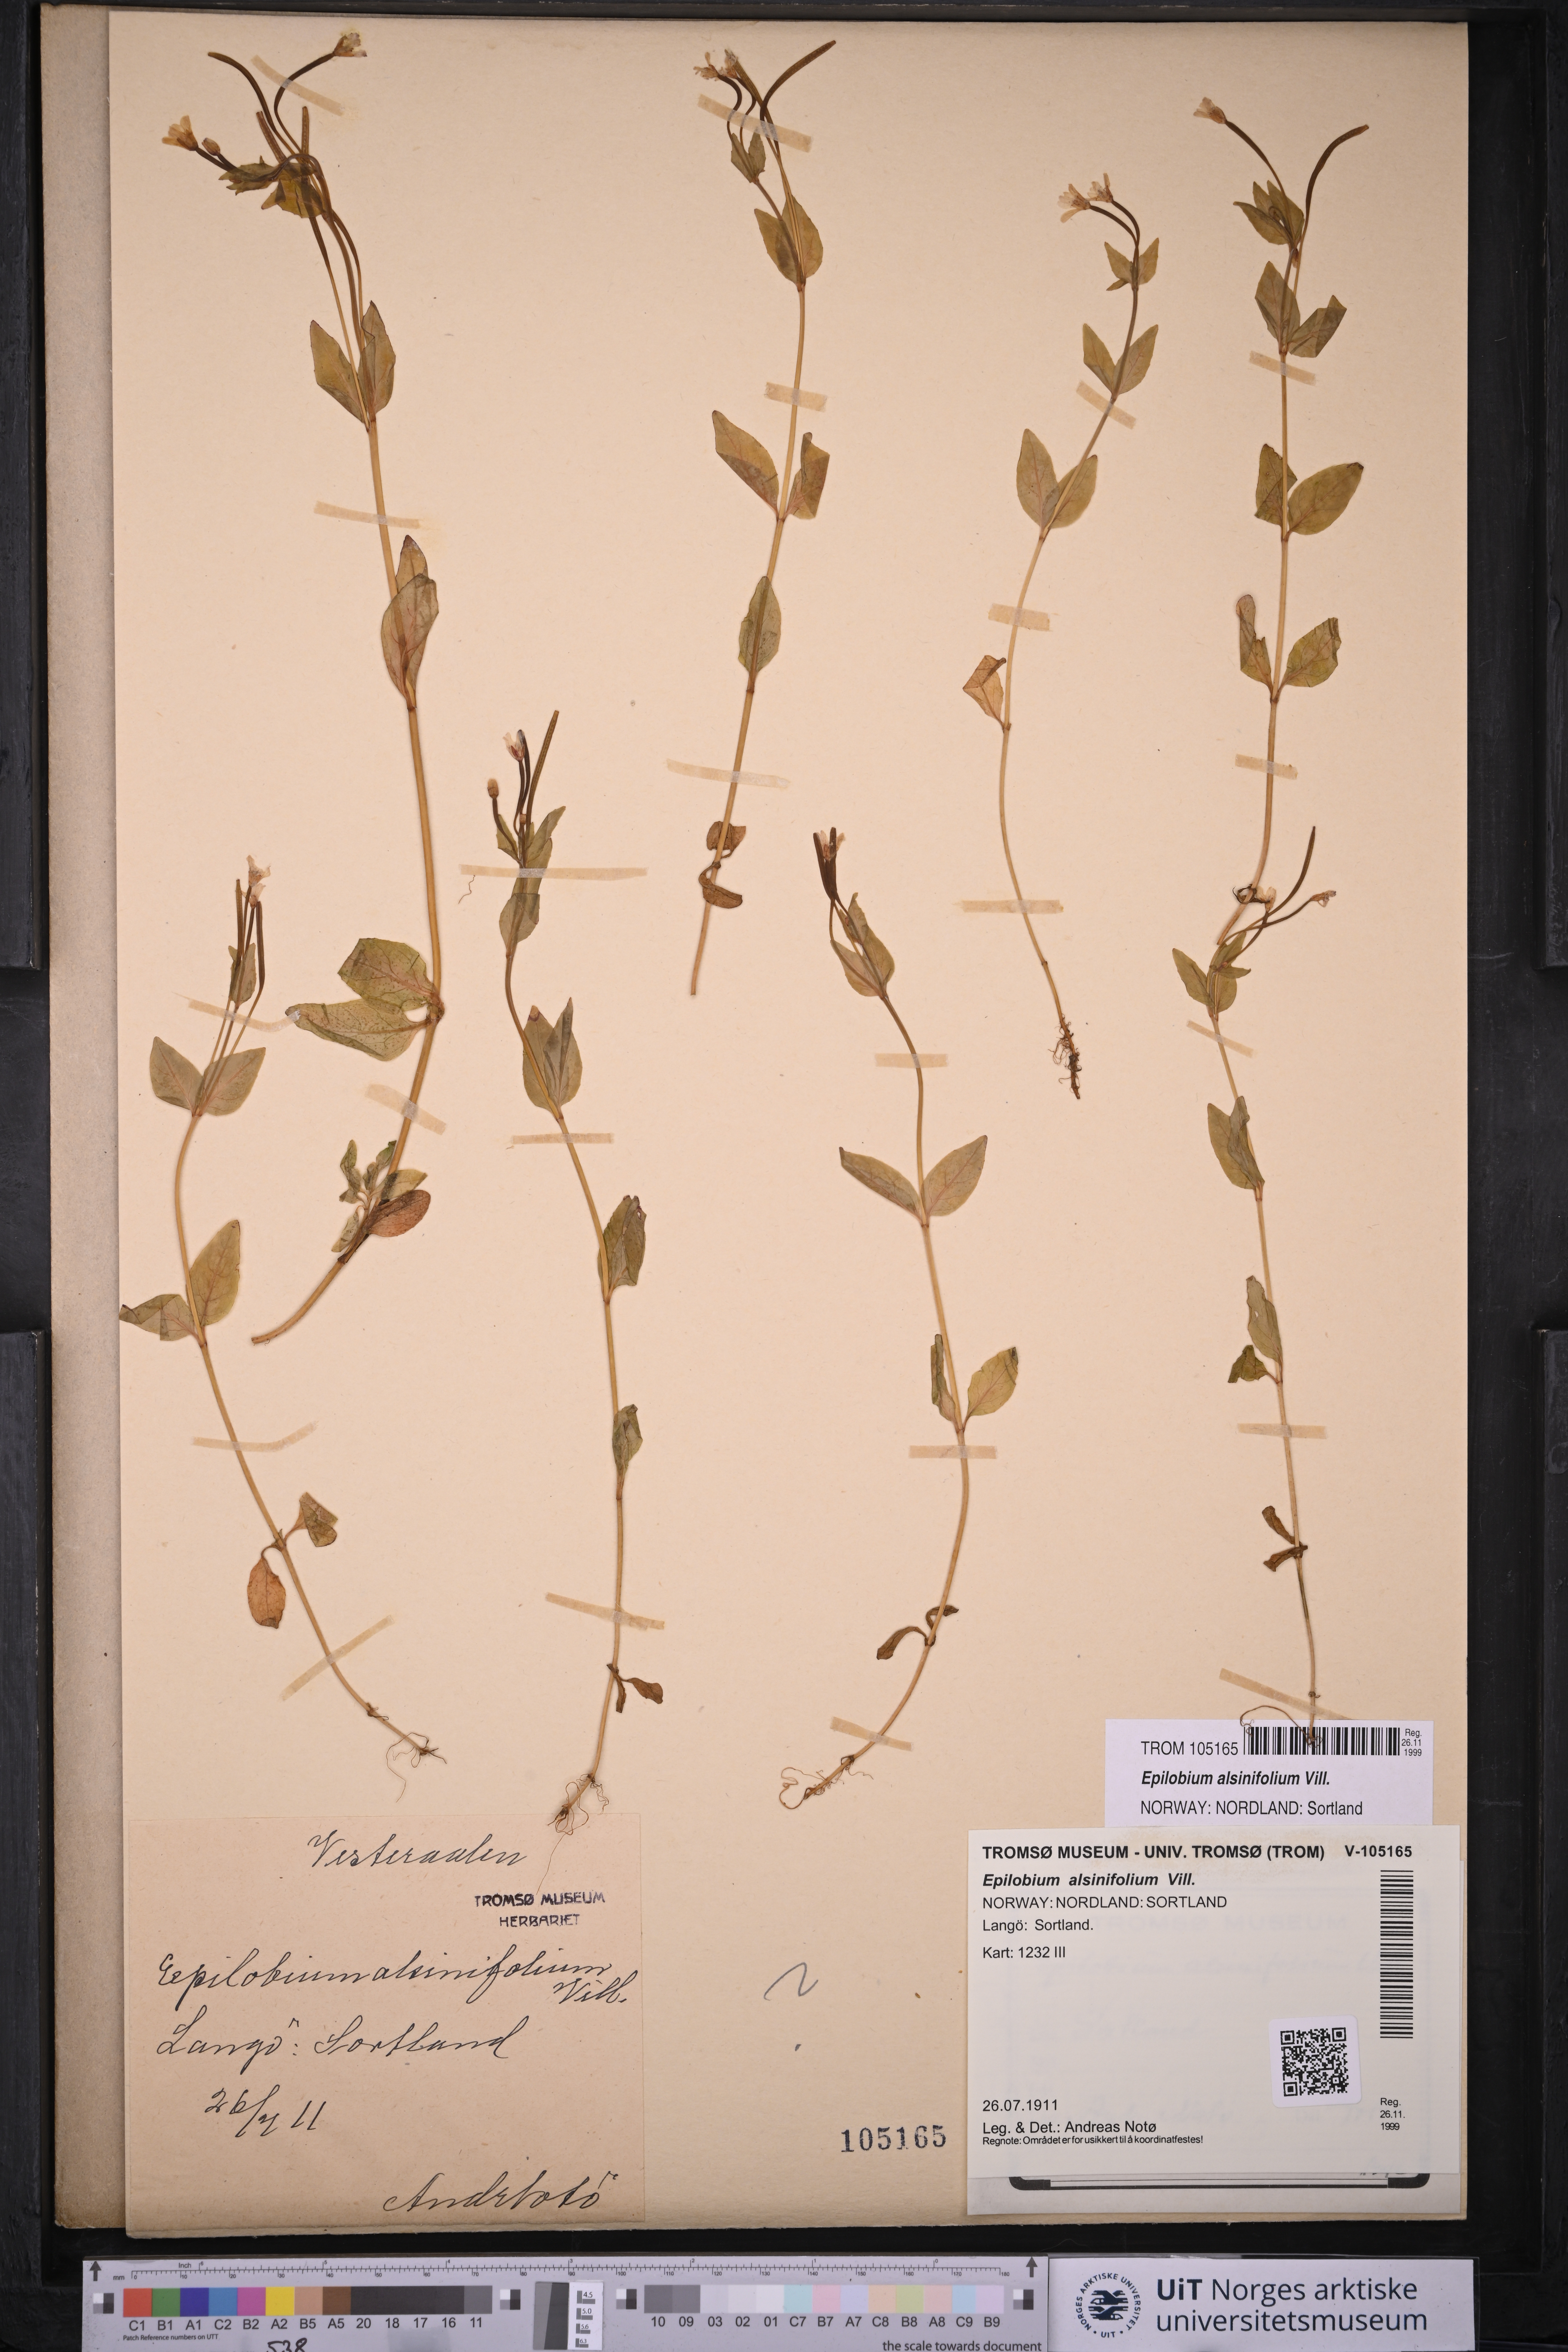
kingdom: Plantae
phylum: Tracheophyta
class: Magnoliopsida
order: Myrtales
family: Onagraceae
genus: Epilobium
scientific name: Epilobium alsinifolium
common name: Chickweed willowherb
